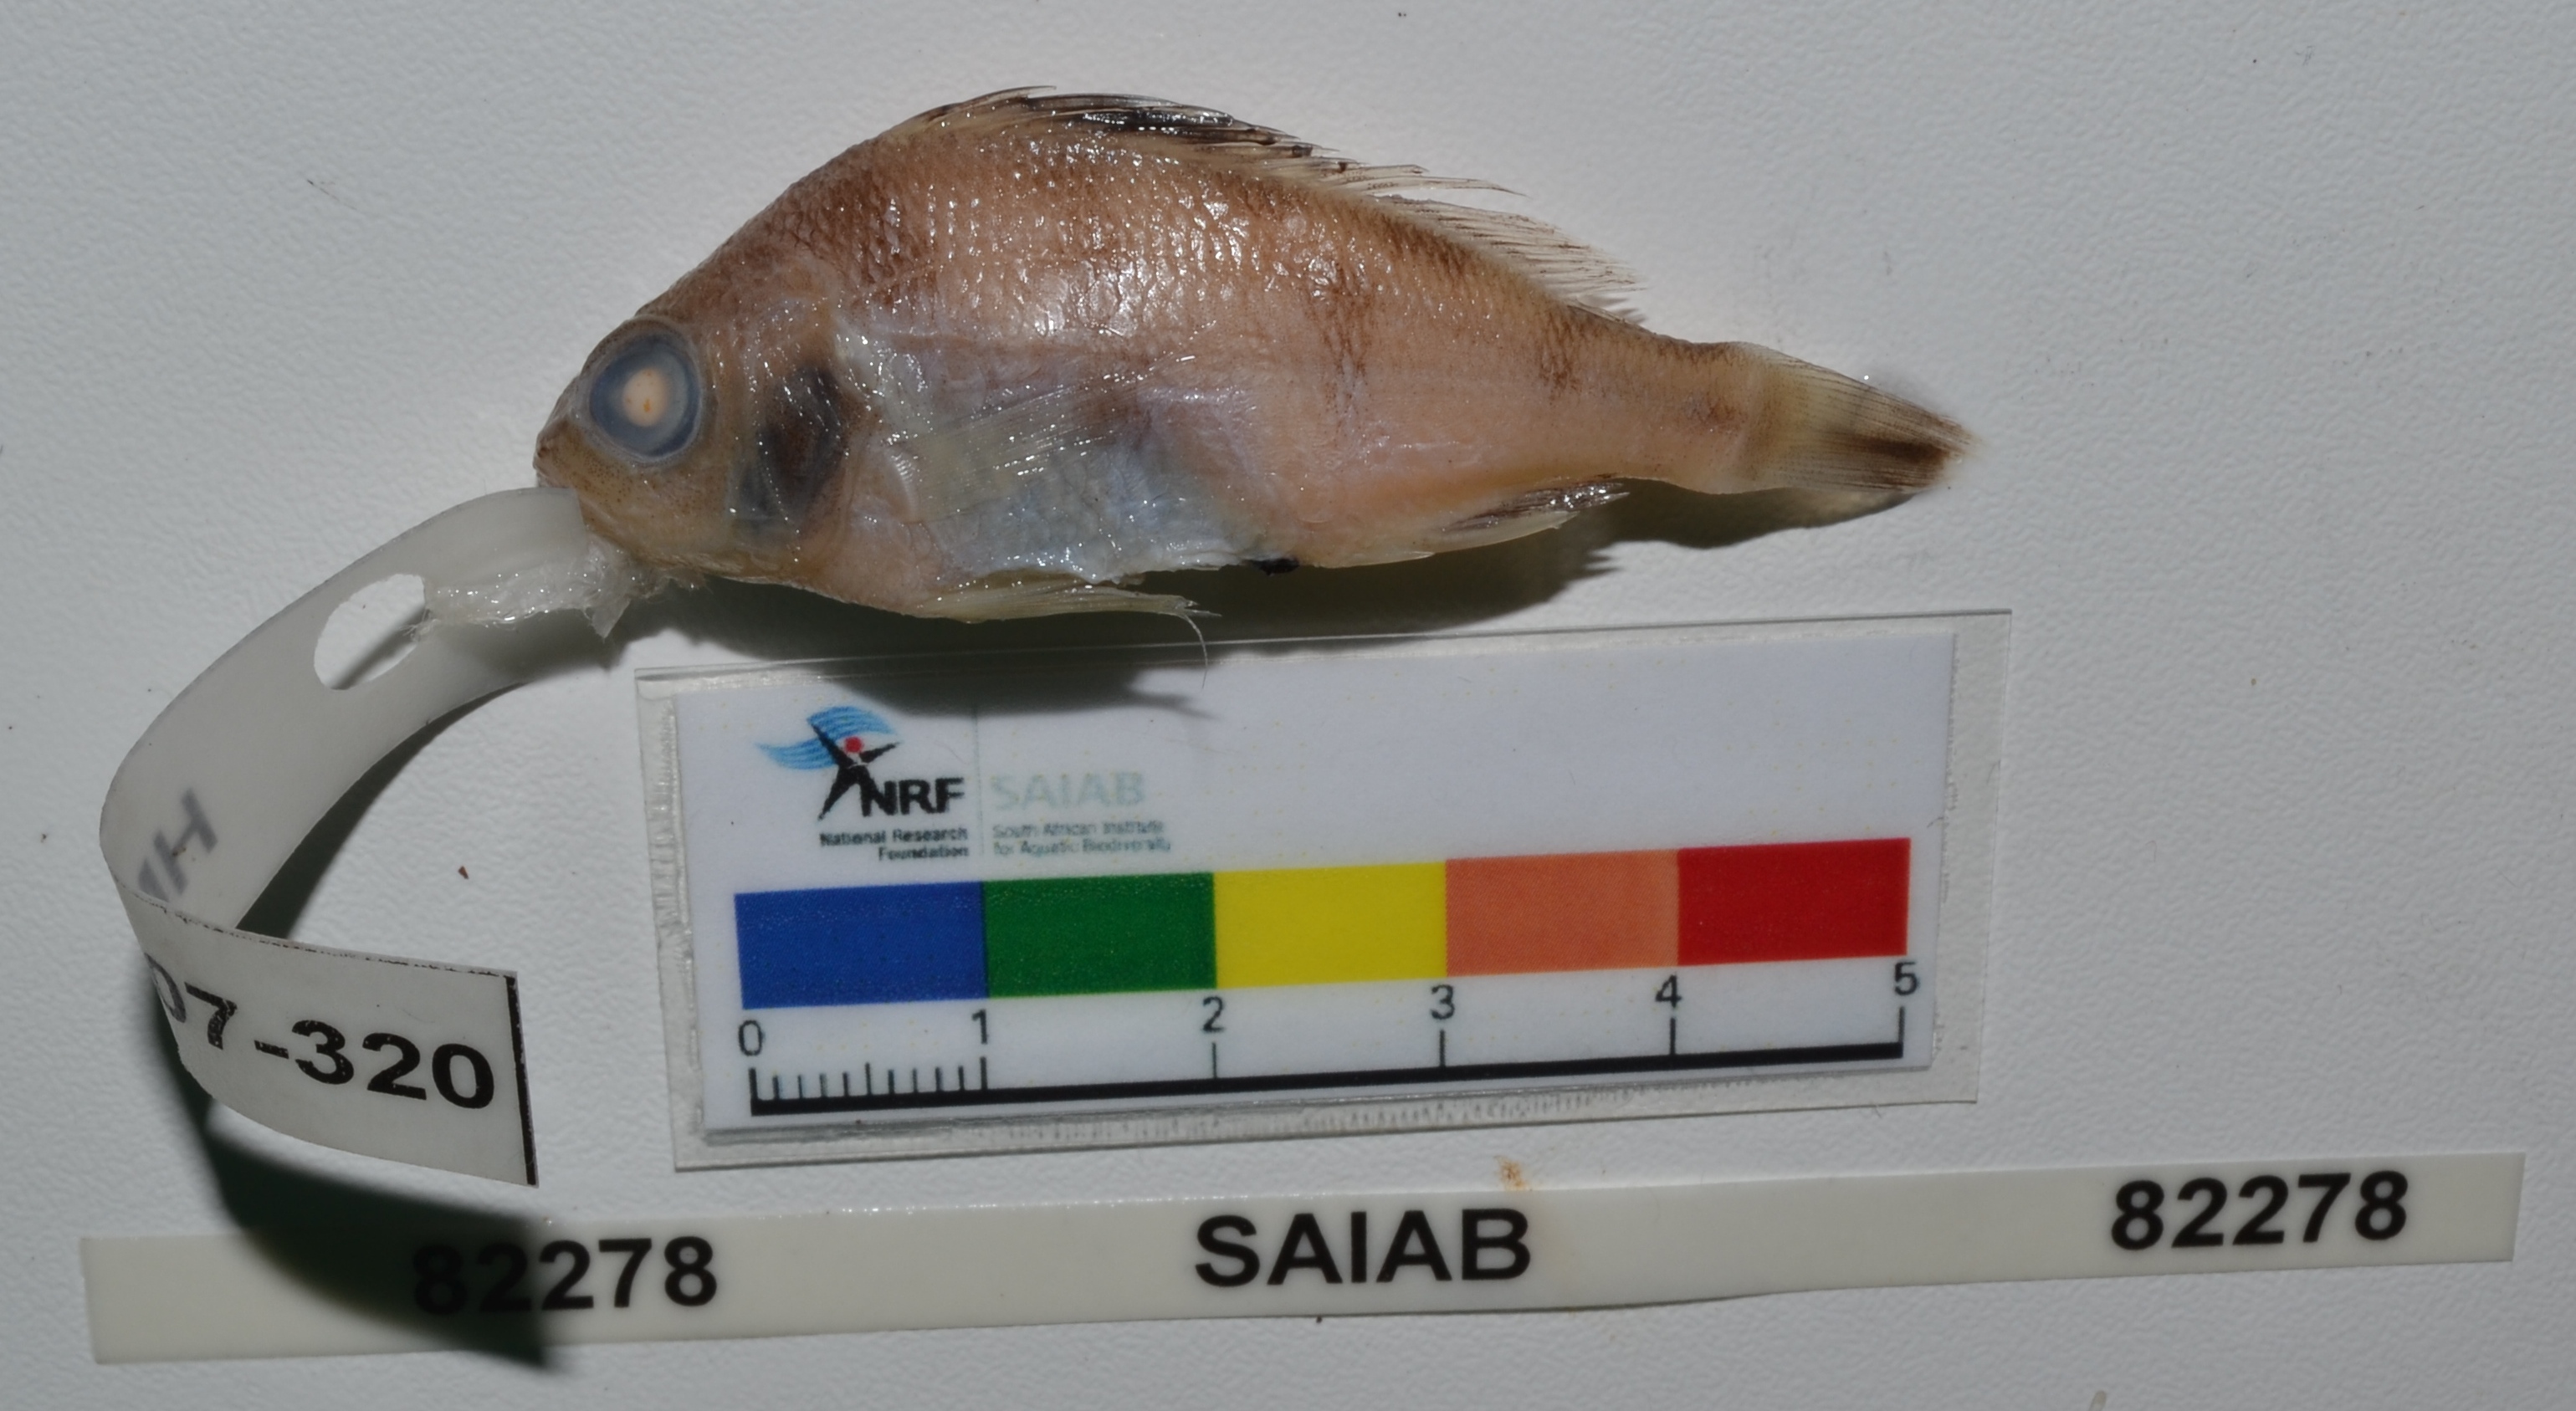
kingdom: Animalia
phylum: Chordata
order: Perciformes
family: Haemulidae
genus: Pomadasys
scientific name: Pomadasys maculatus
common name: Saddle grunt
